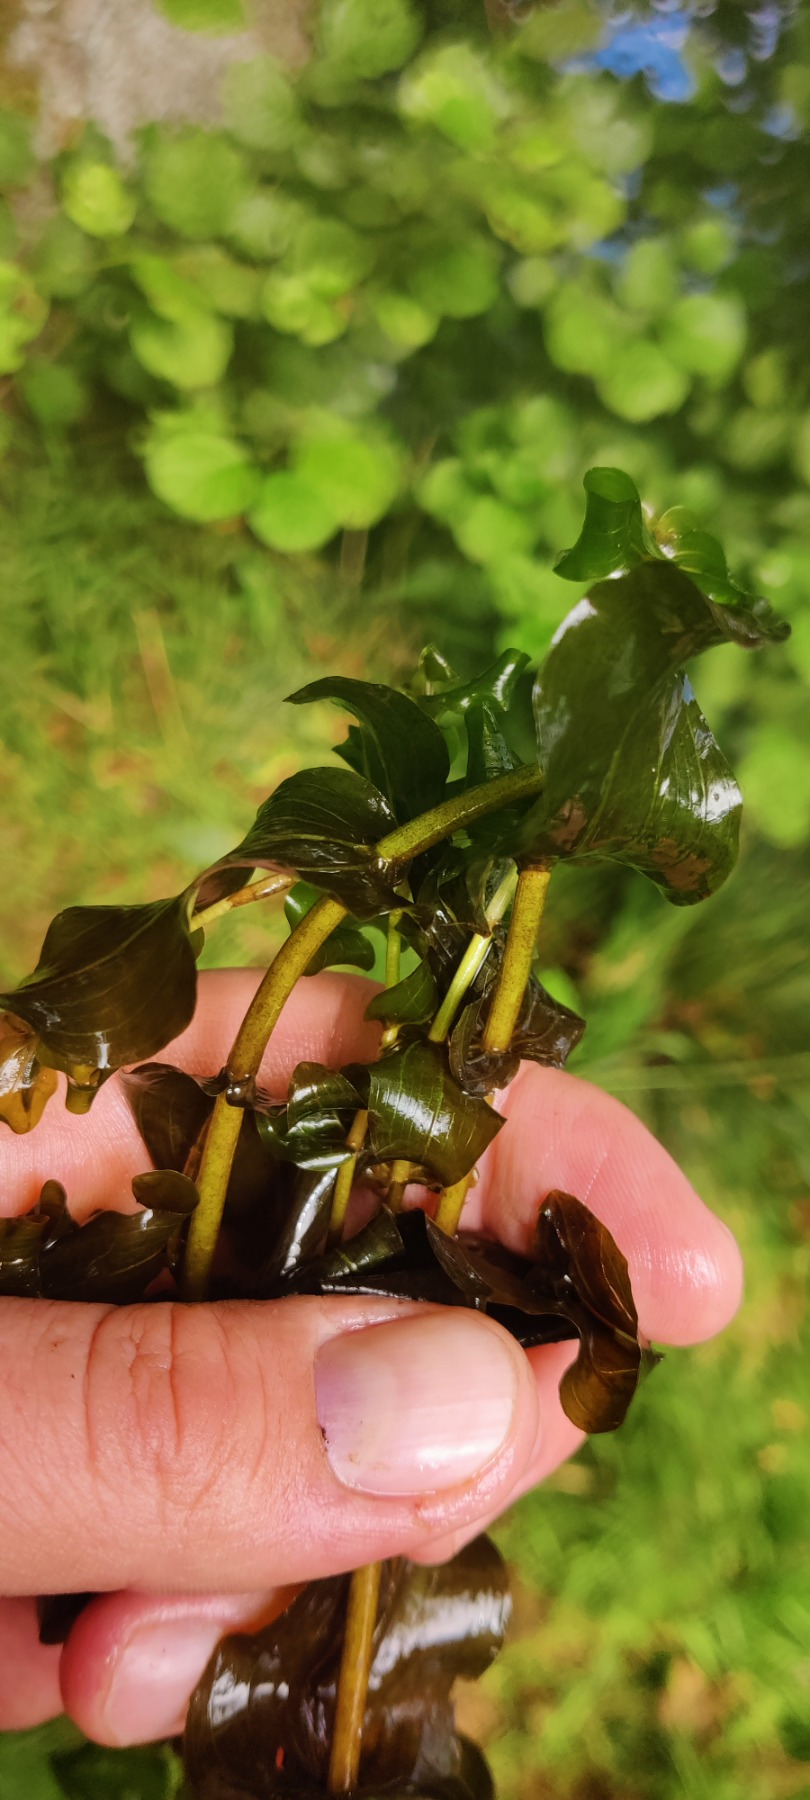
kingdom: Plantae
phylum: Tracheophyta
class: Liliopsida
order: Alismatales
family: Potamogetonaceae
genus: Potamogeton
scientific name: Potamogeton perfoliatus
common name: Hjertebladet vandaks
